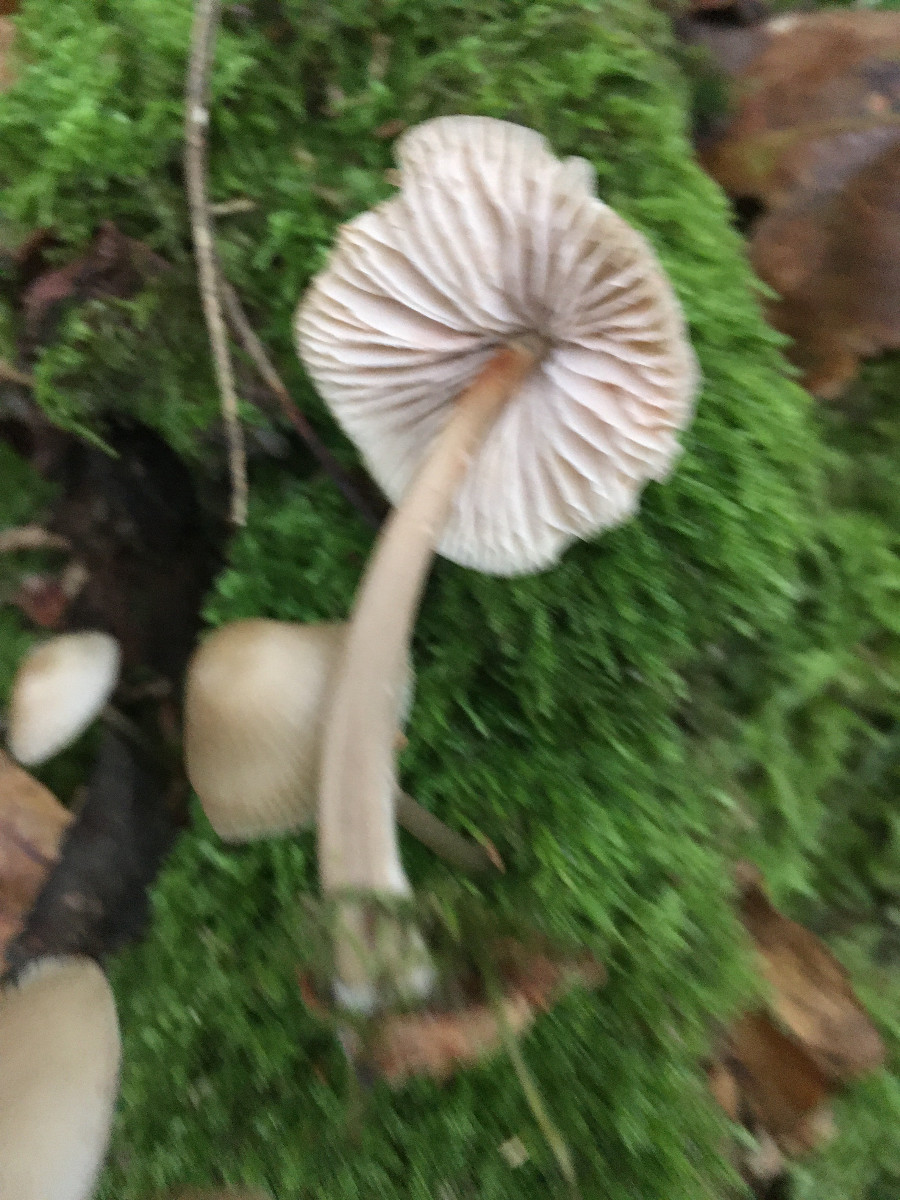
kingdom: Fungi
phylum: Basidiomycota
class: Agaricomycetes
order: Agaricales
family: Mycenaceae
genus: Mycena
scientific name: Mycena galericulata
